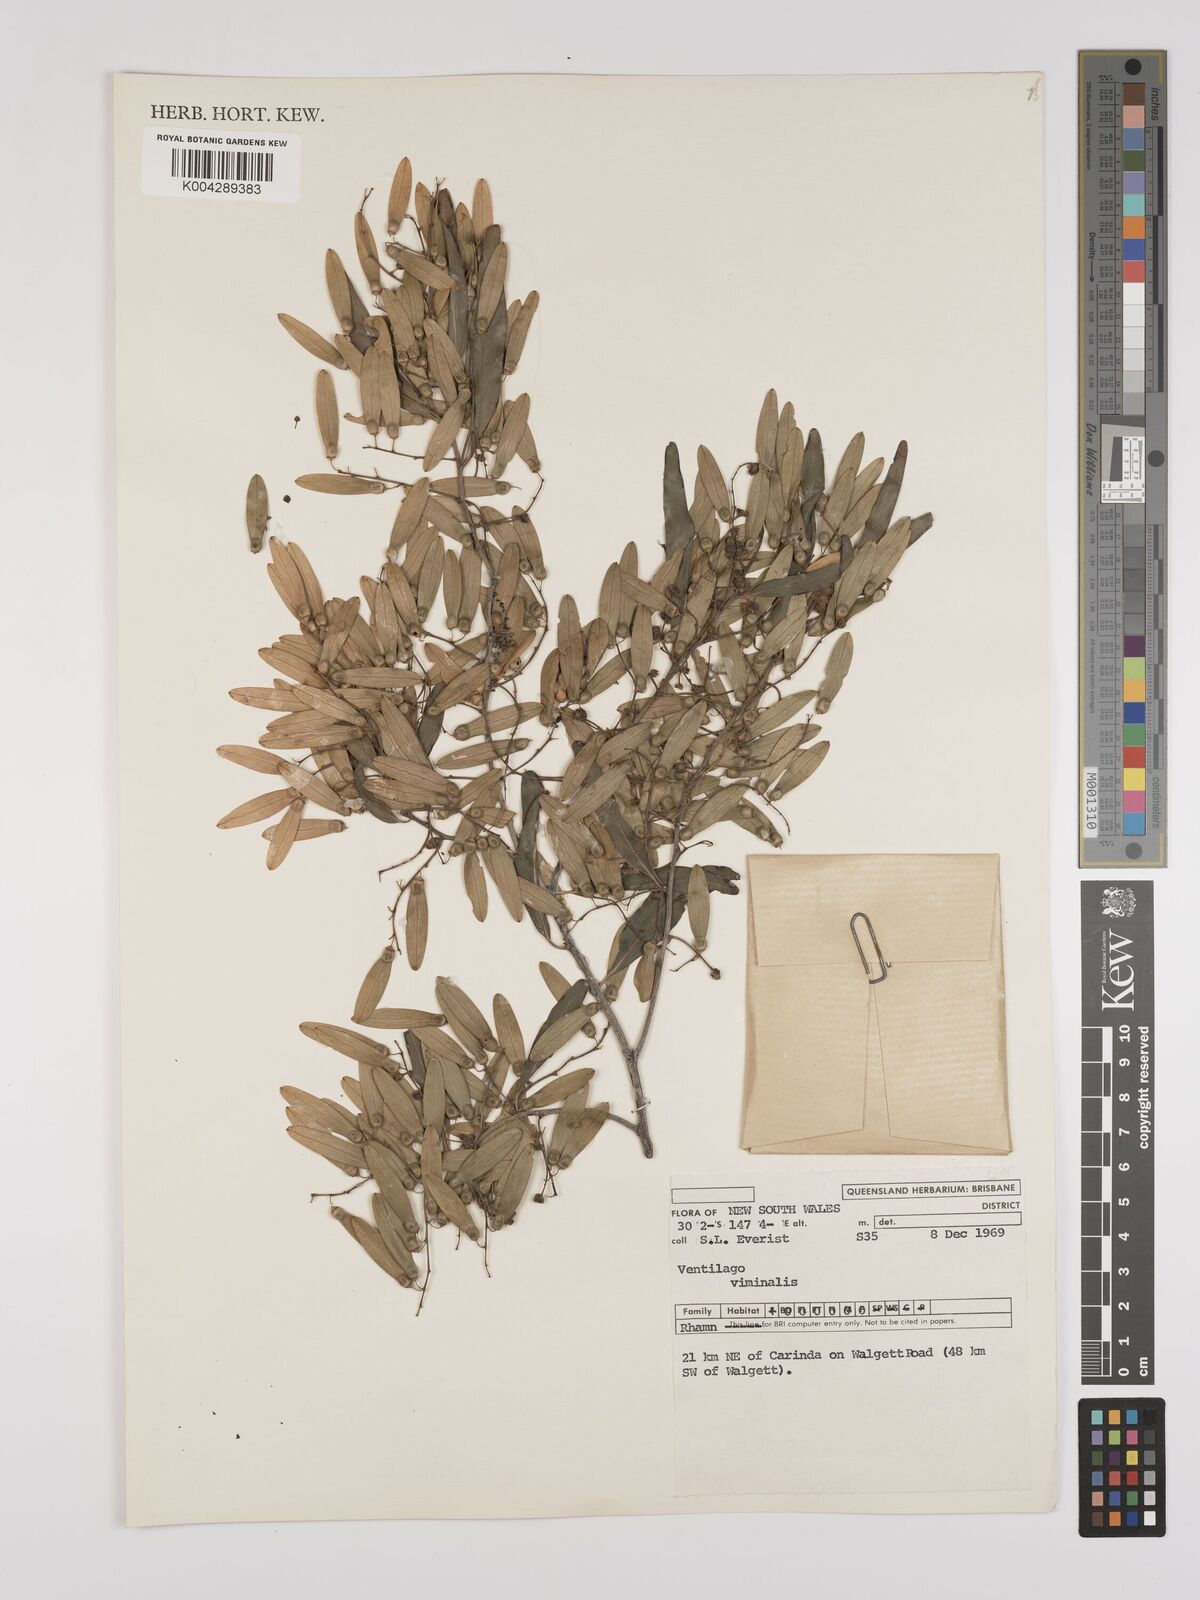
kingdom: Plantae
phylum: Tracheophyta
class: Magnoliopsida
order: Rosales
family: Rhamnaceae
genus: Ventilago
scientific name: Ventilago viminalis
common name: Medicine-bark
